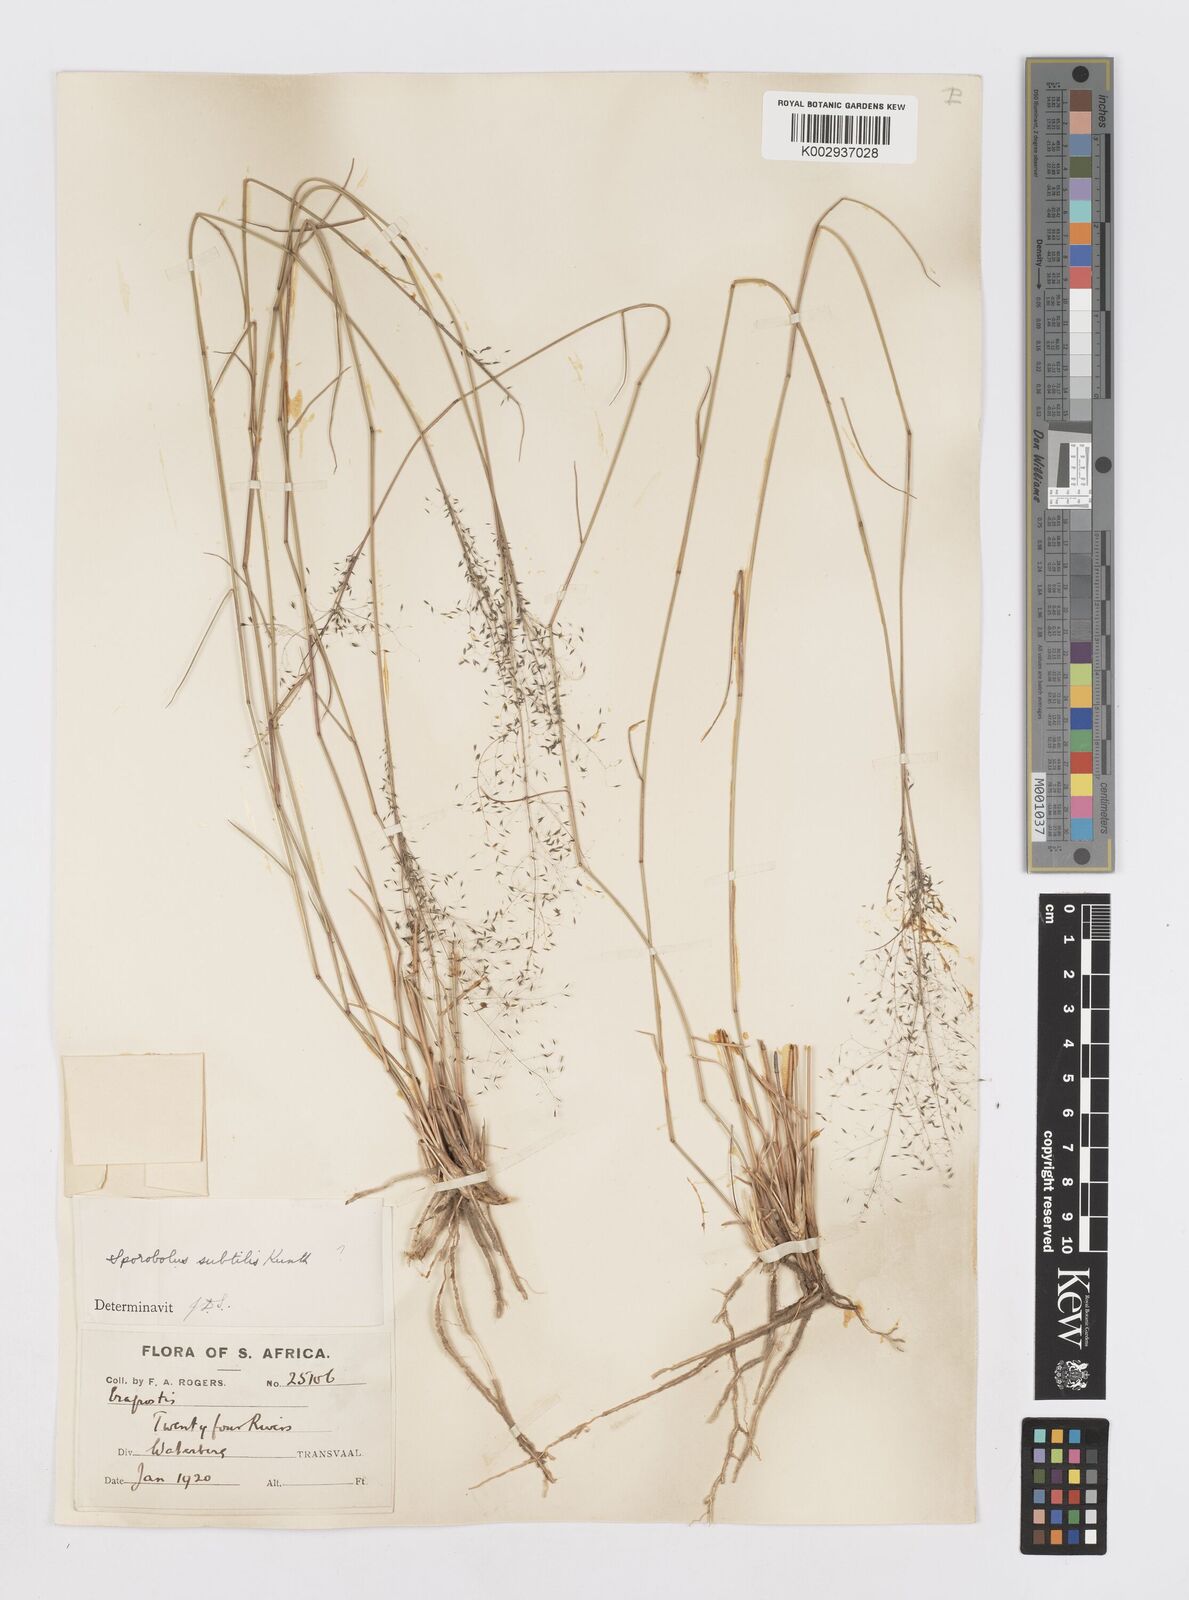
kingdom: Plantae
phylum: Tracheophyta
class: Liliopsida
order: Poales
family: Poaceae
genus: Sporobolus
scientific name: Sporobolus welwitschii
